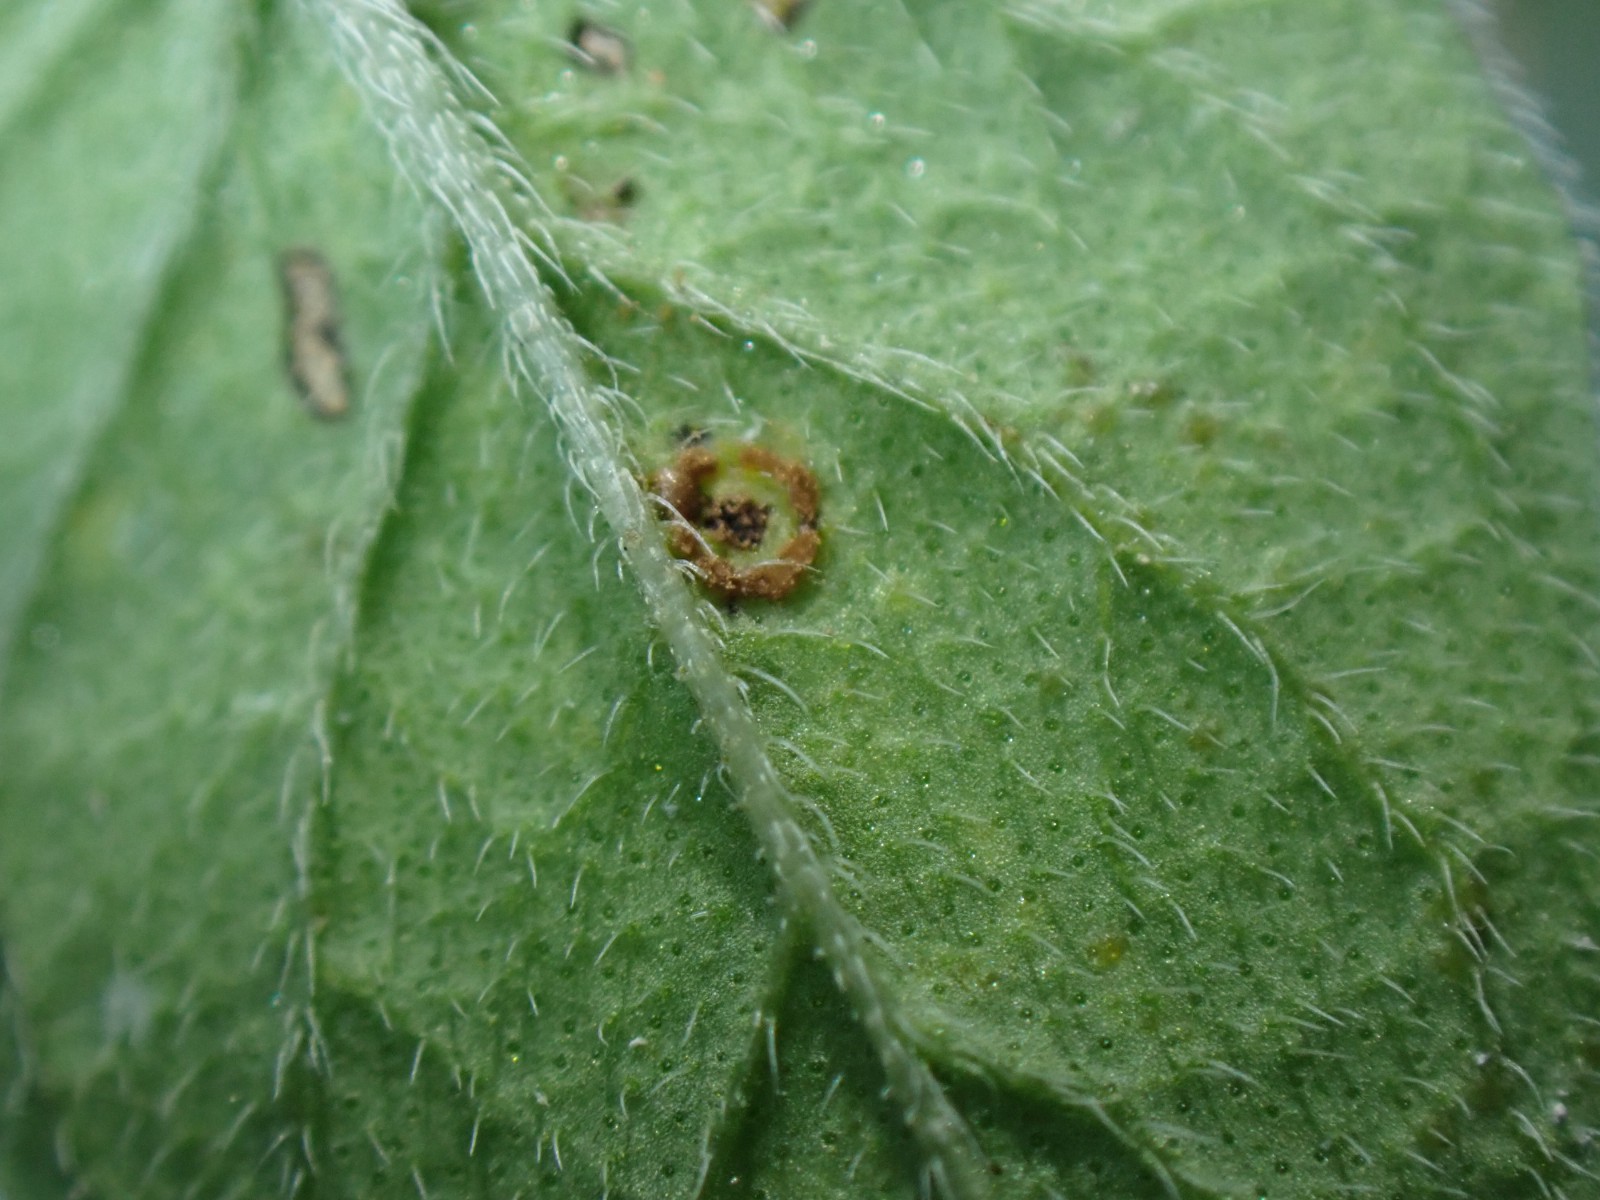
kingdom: Fungi
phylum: Basidiomycota
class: Pucciniomycetes
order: Pucciniales
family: Pucciniaceae
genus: Puccinia
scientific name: Puccinia menthae
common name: Mint rust
